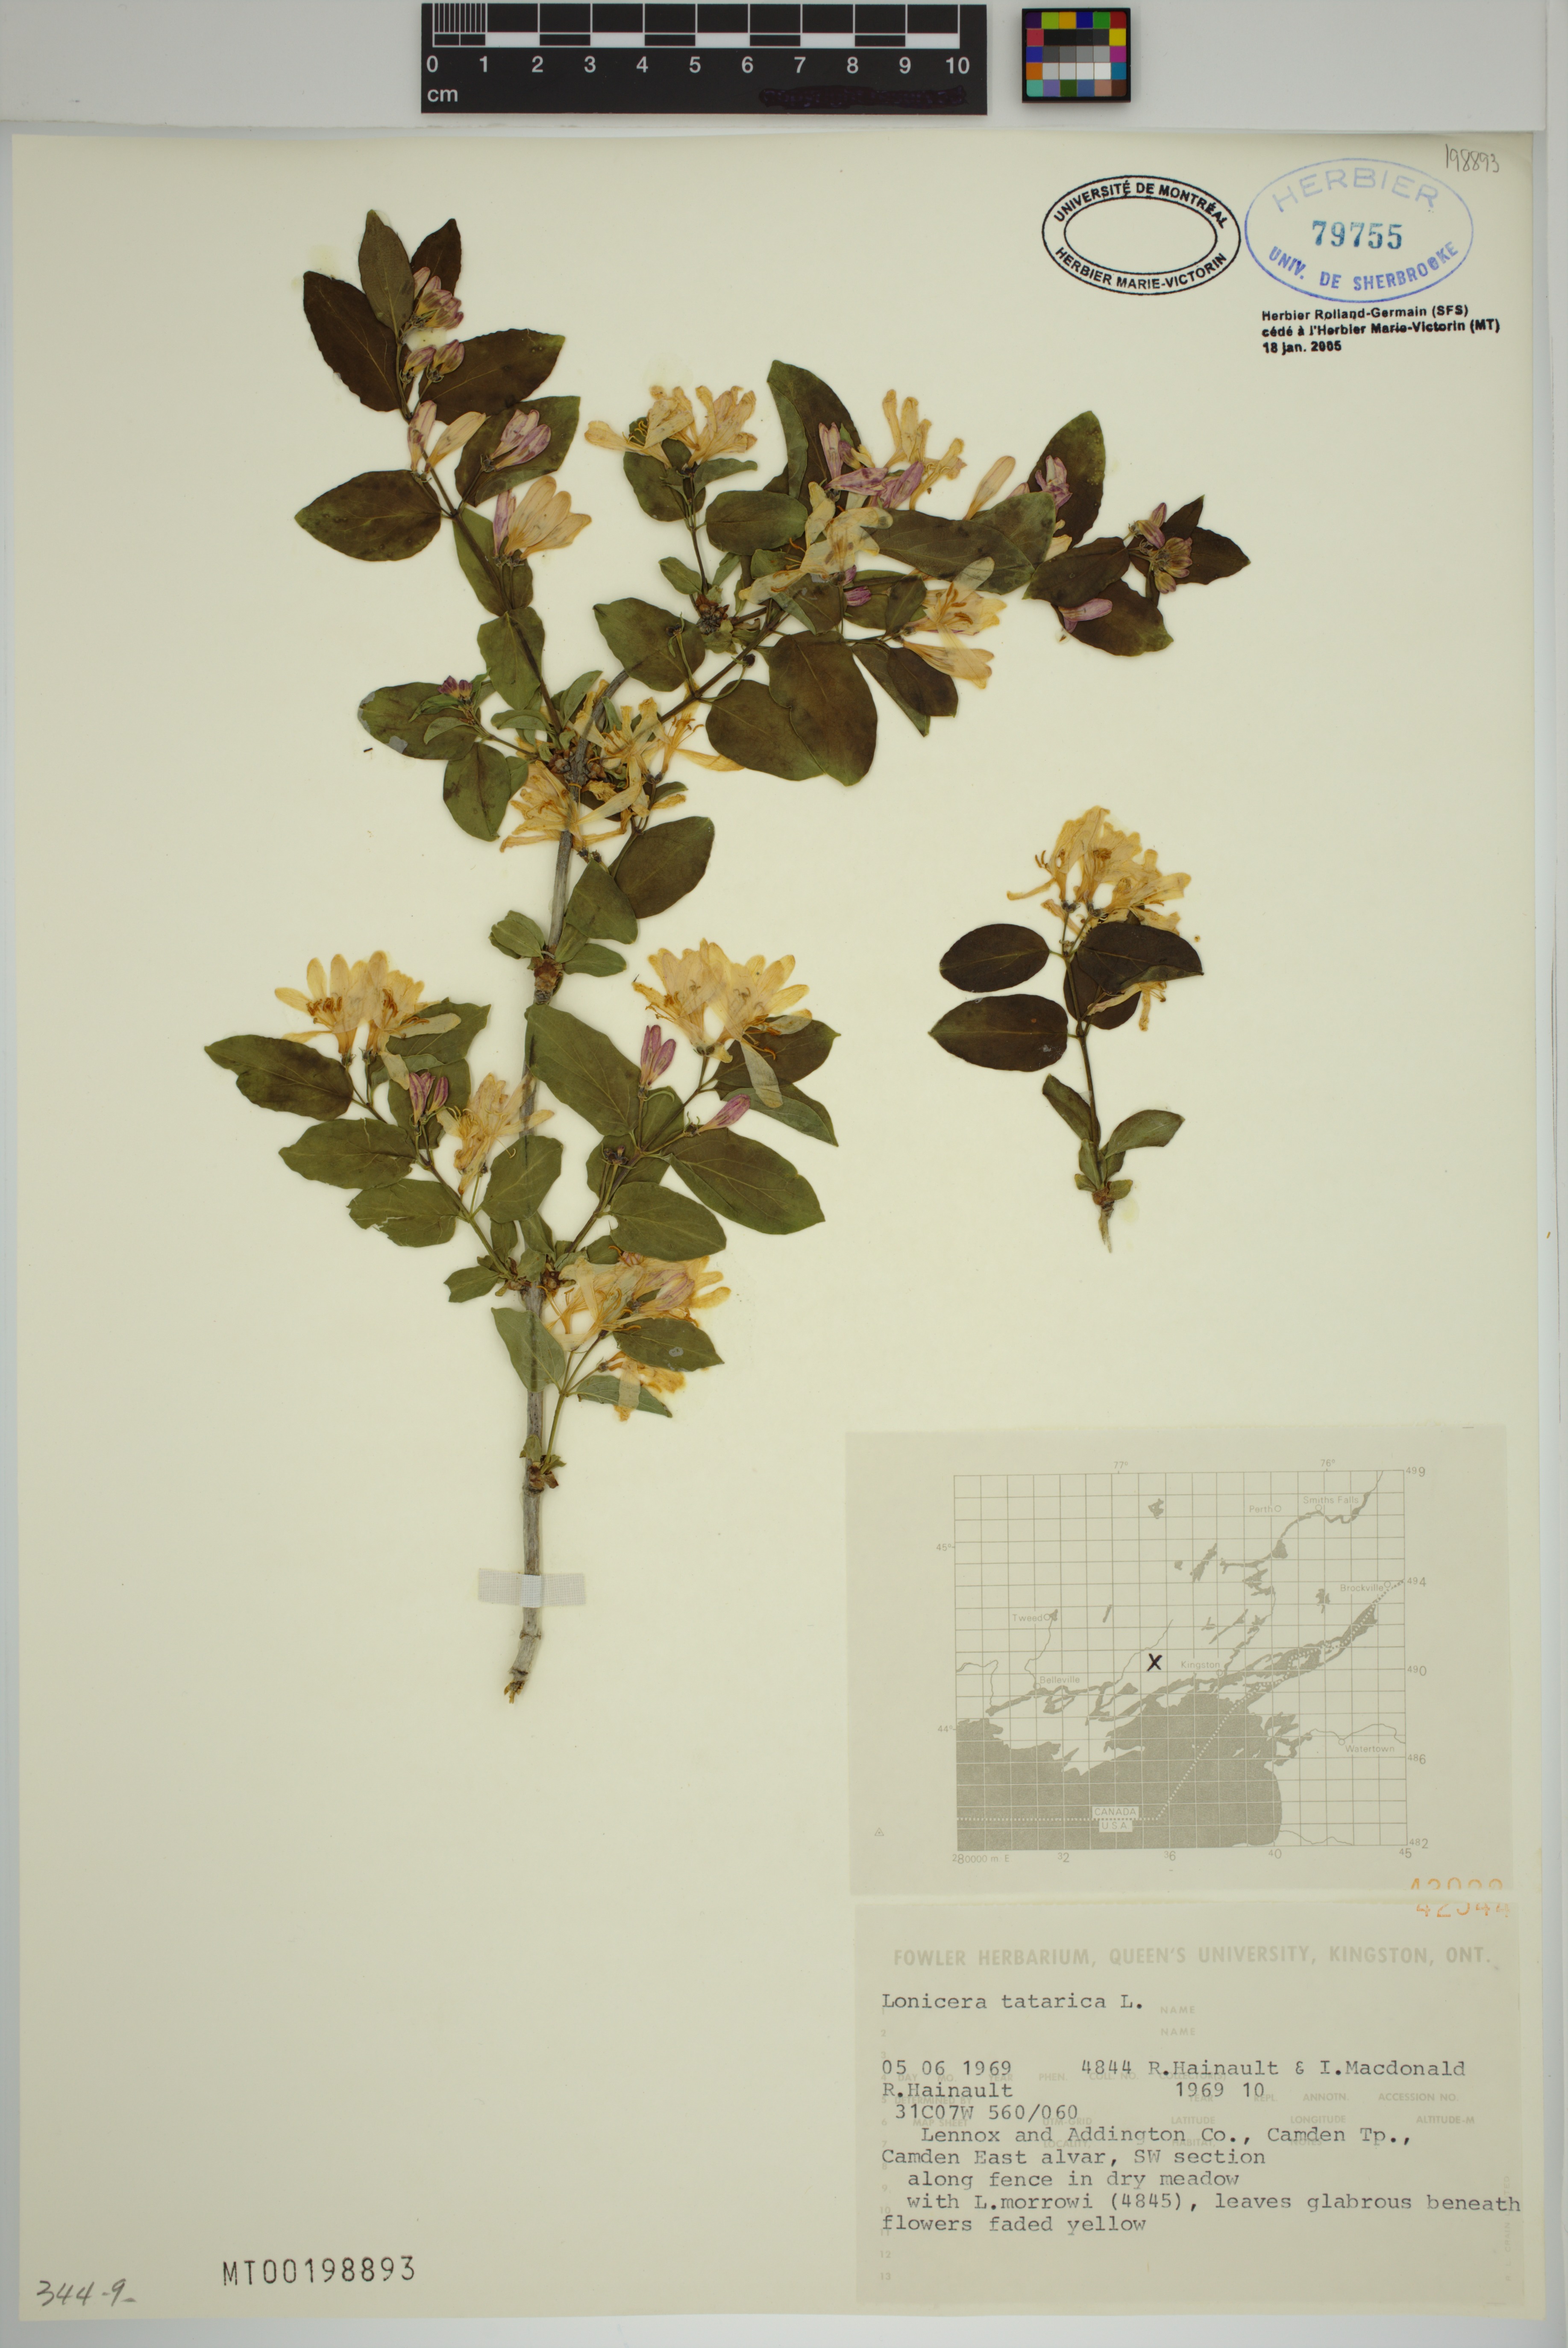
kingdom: Plantae
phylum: Tracheophyta
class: Magnoliopsida
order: Dipsacales
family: Caprifoliaceae
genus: Lonicera
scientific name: Lonicera tatarica
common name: Tatarian honeysuckle
